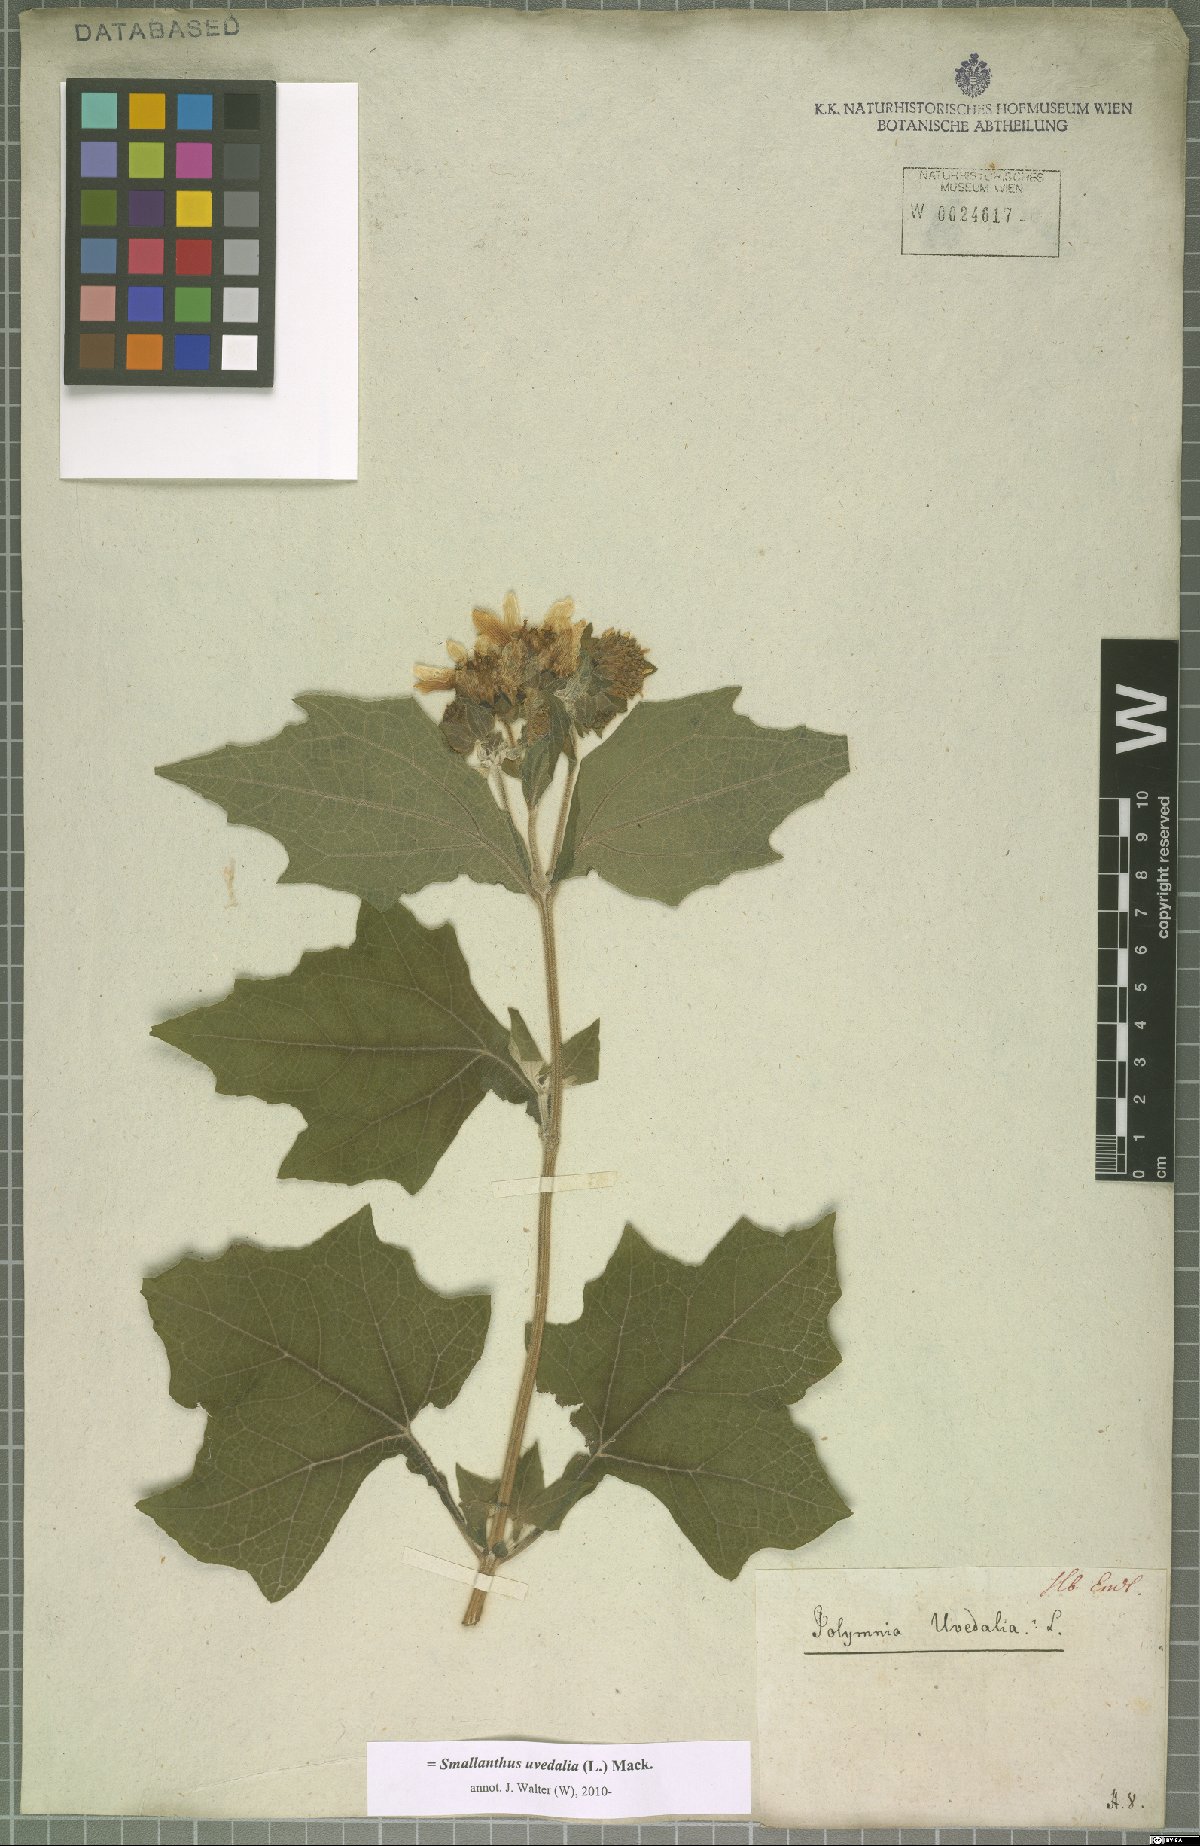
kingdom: Plantae
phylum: Tracheophyta
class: Magnoliopsida
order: Asterales
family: Asteraceae
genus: Smallanthus
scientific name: Smallanthus uvedalia
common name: Bear's-foot
